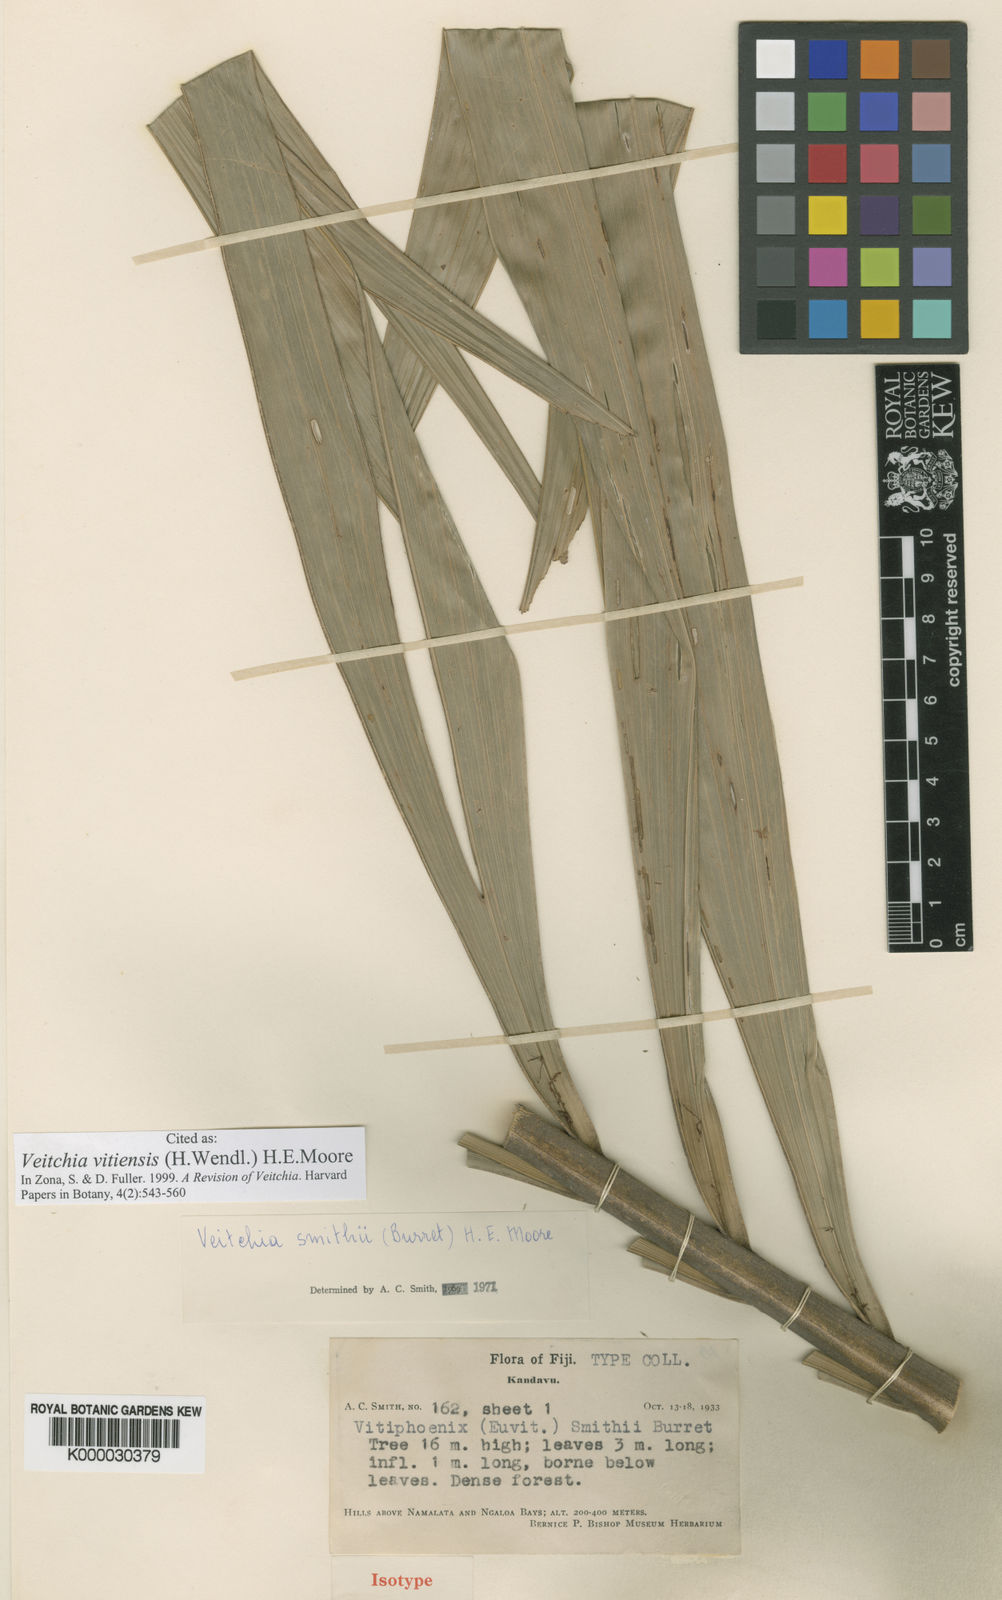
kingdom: Plantae
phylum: Tracheophyta
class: Liliopsida
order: Arecales
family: Arecaceae
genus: Veitchia
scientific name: Veitchia vitiensis
